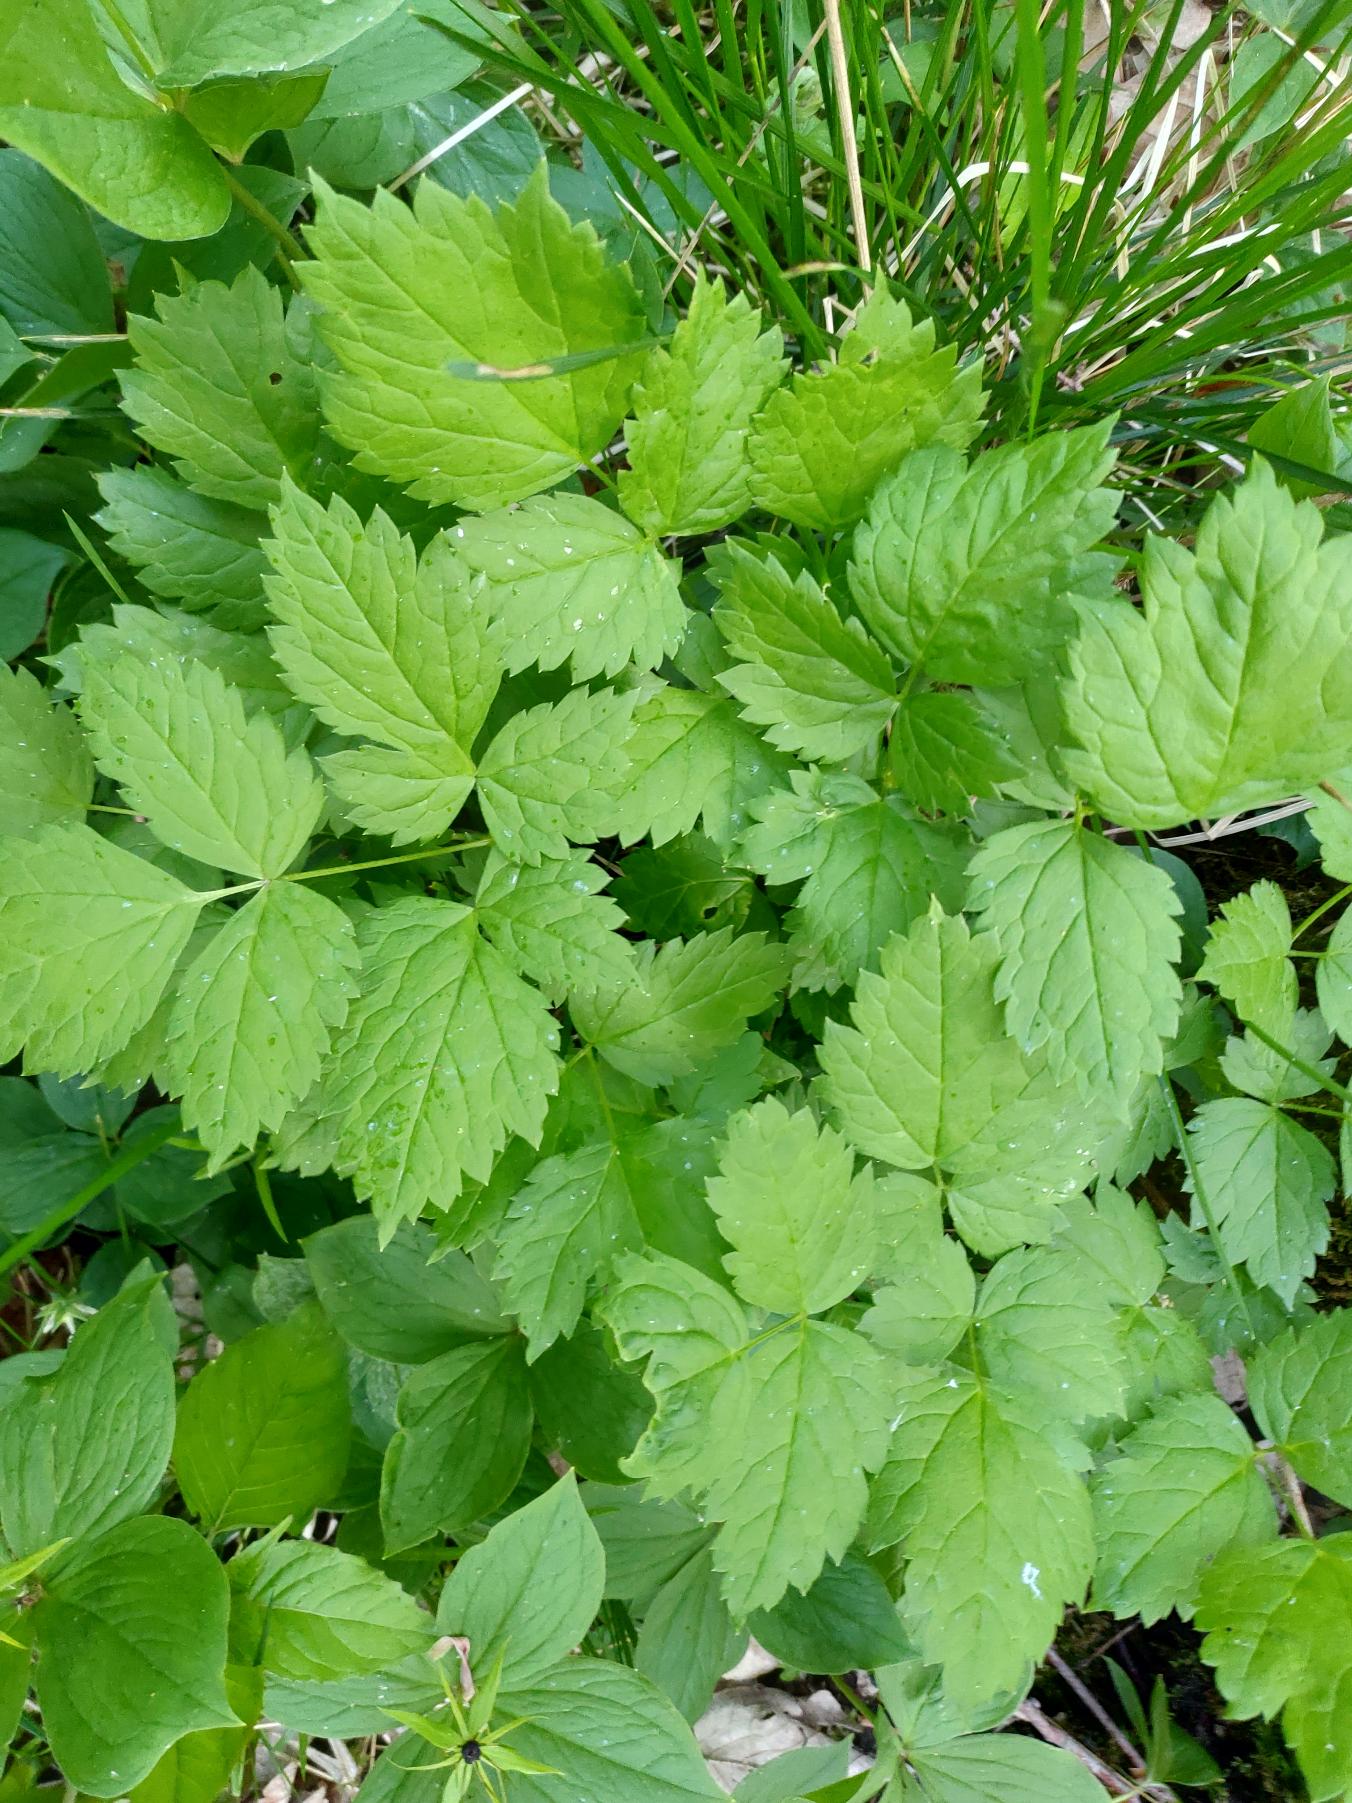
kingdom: Plantae
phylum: Tracheophyta
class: Magnoliopsida
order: Ranunculales
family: Ranunculaceae
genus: Actaea
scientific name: Actaea spicata
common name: Druemunke
